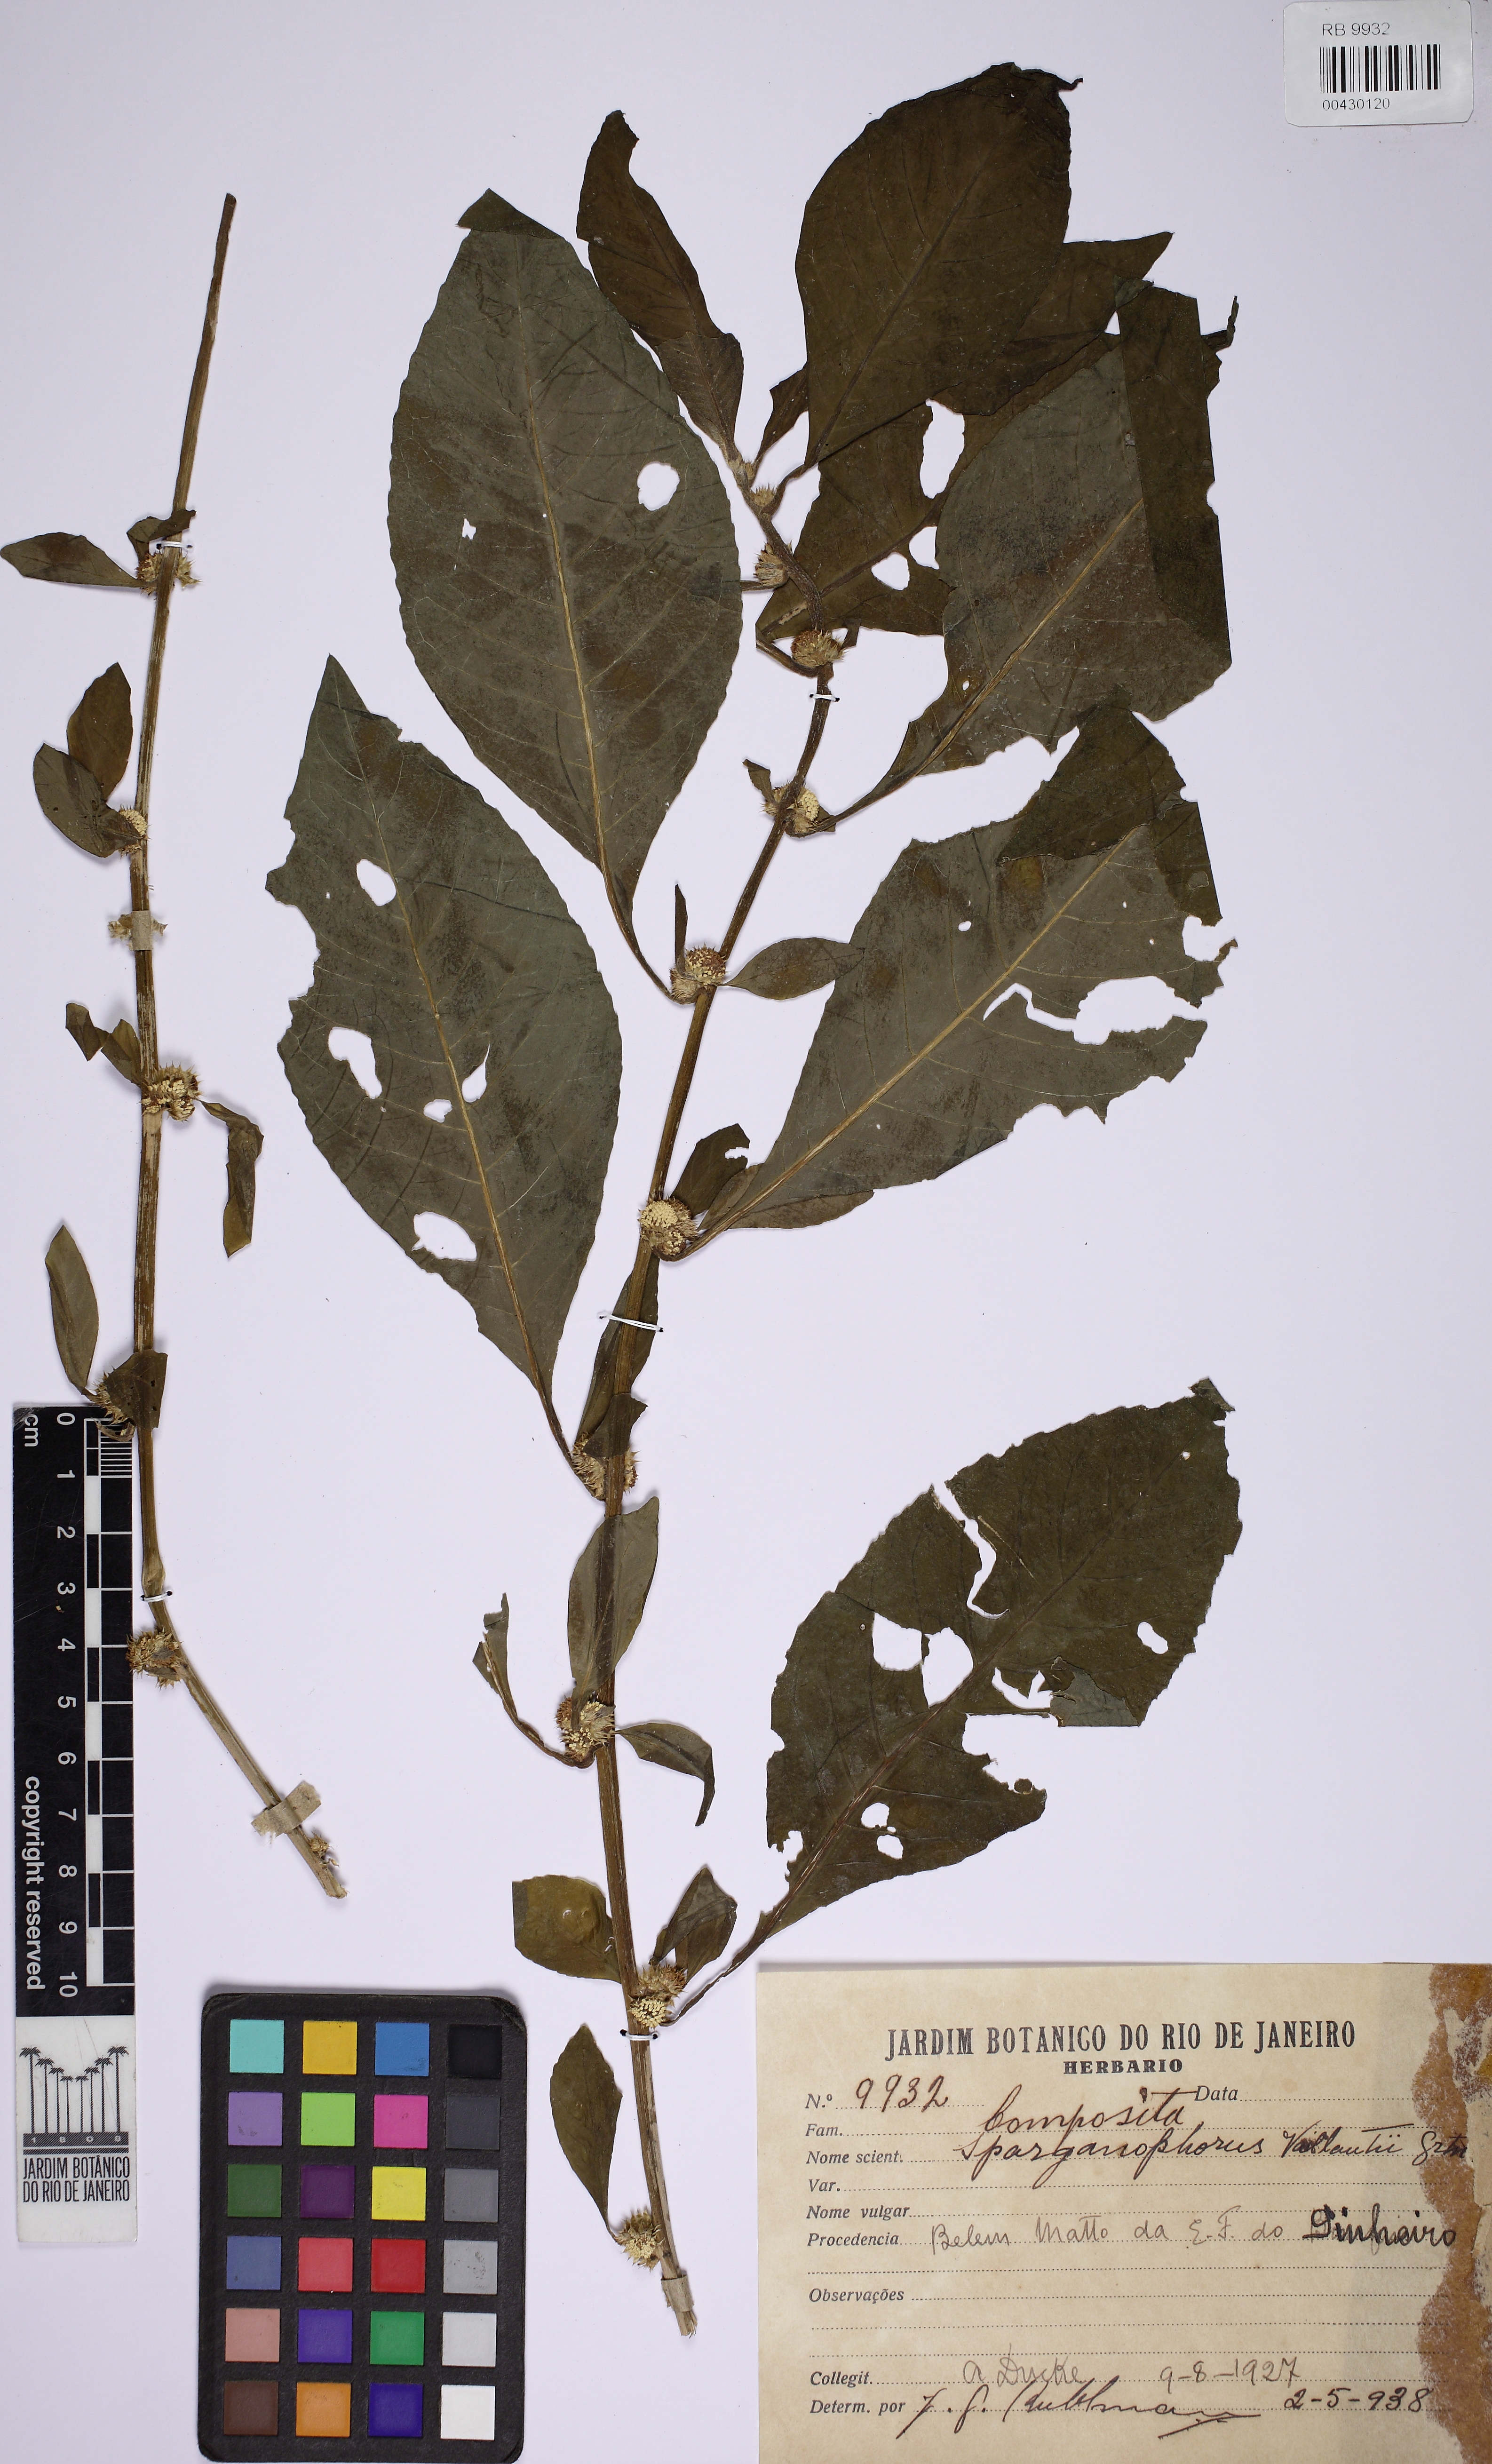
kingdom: Plantae
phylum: Tracheophyta
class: Magnoliopsida
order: Asterales
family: Asteraceae
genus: Struchium
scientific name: Struchium sparganophorum
